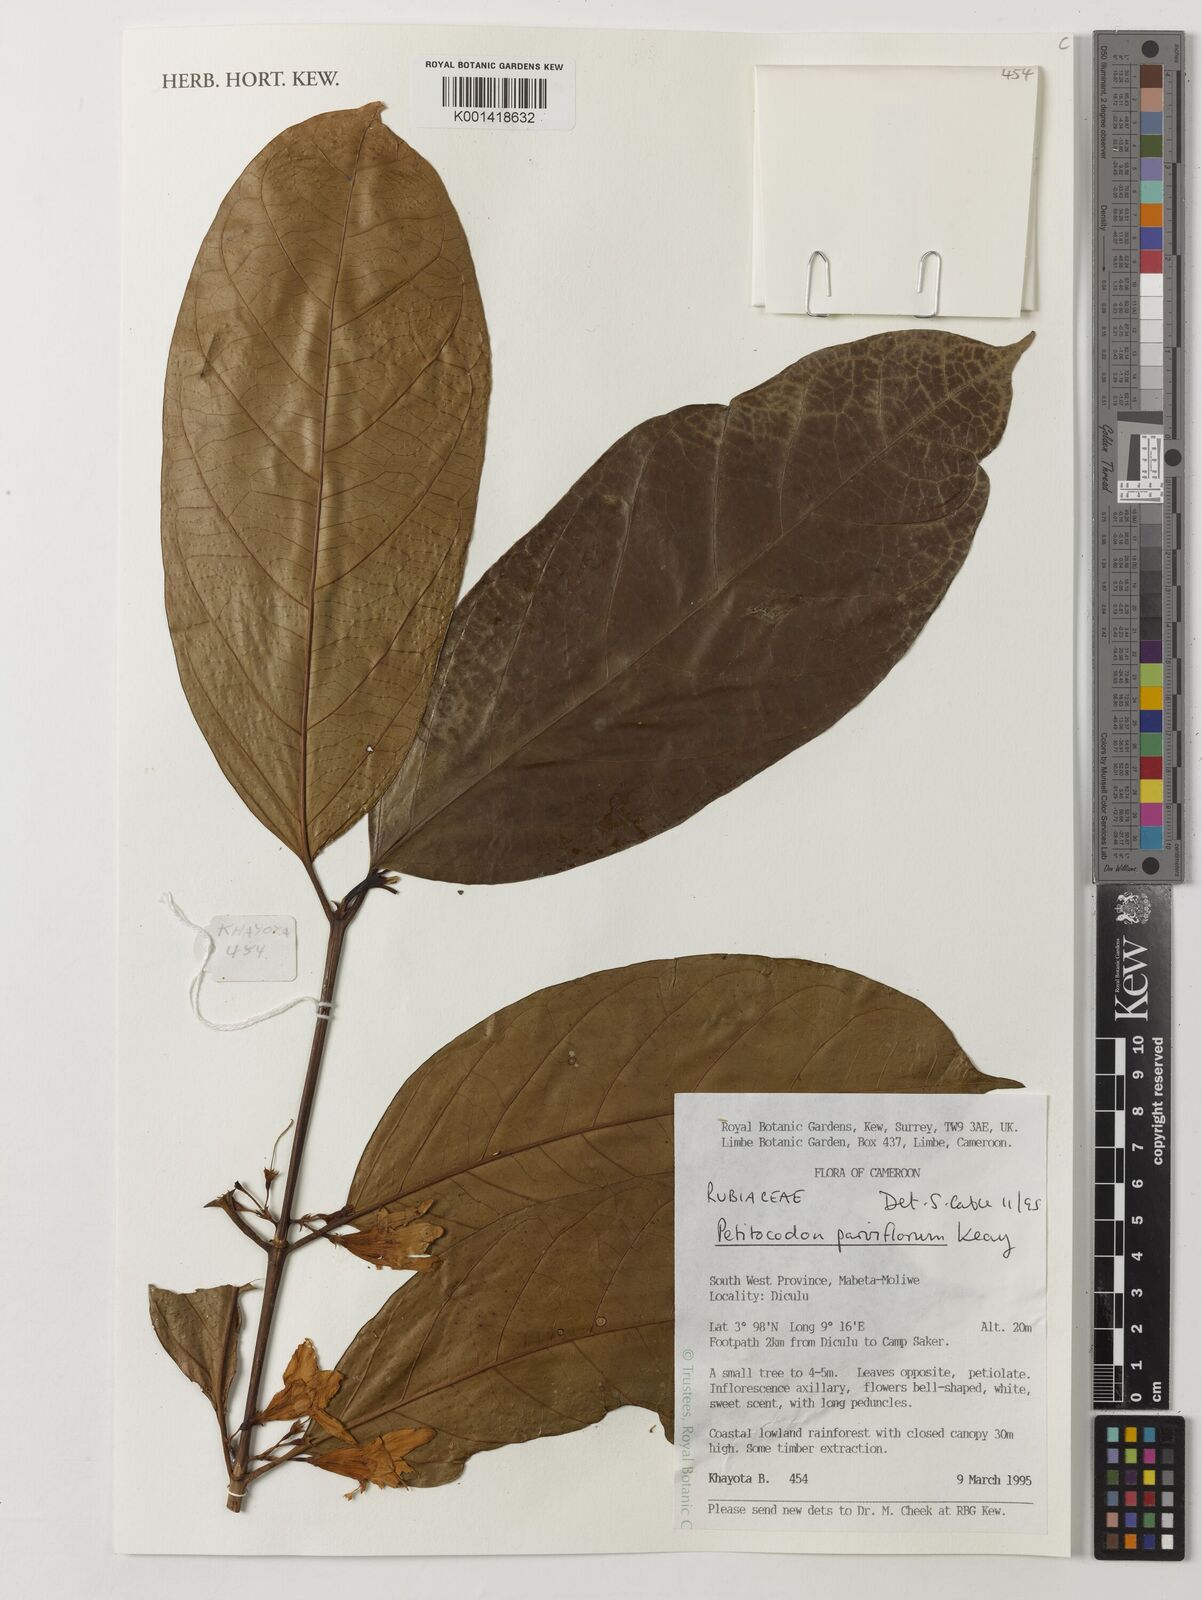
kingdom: Plantae
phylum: Tracheophyta
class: Magnoliopsida
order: Gentianales
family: Rubiaceae
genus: Petitiocodon
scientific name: Petitiocodon parviflorum
